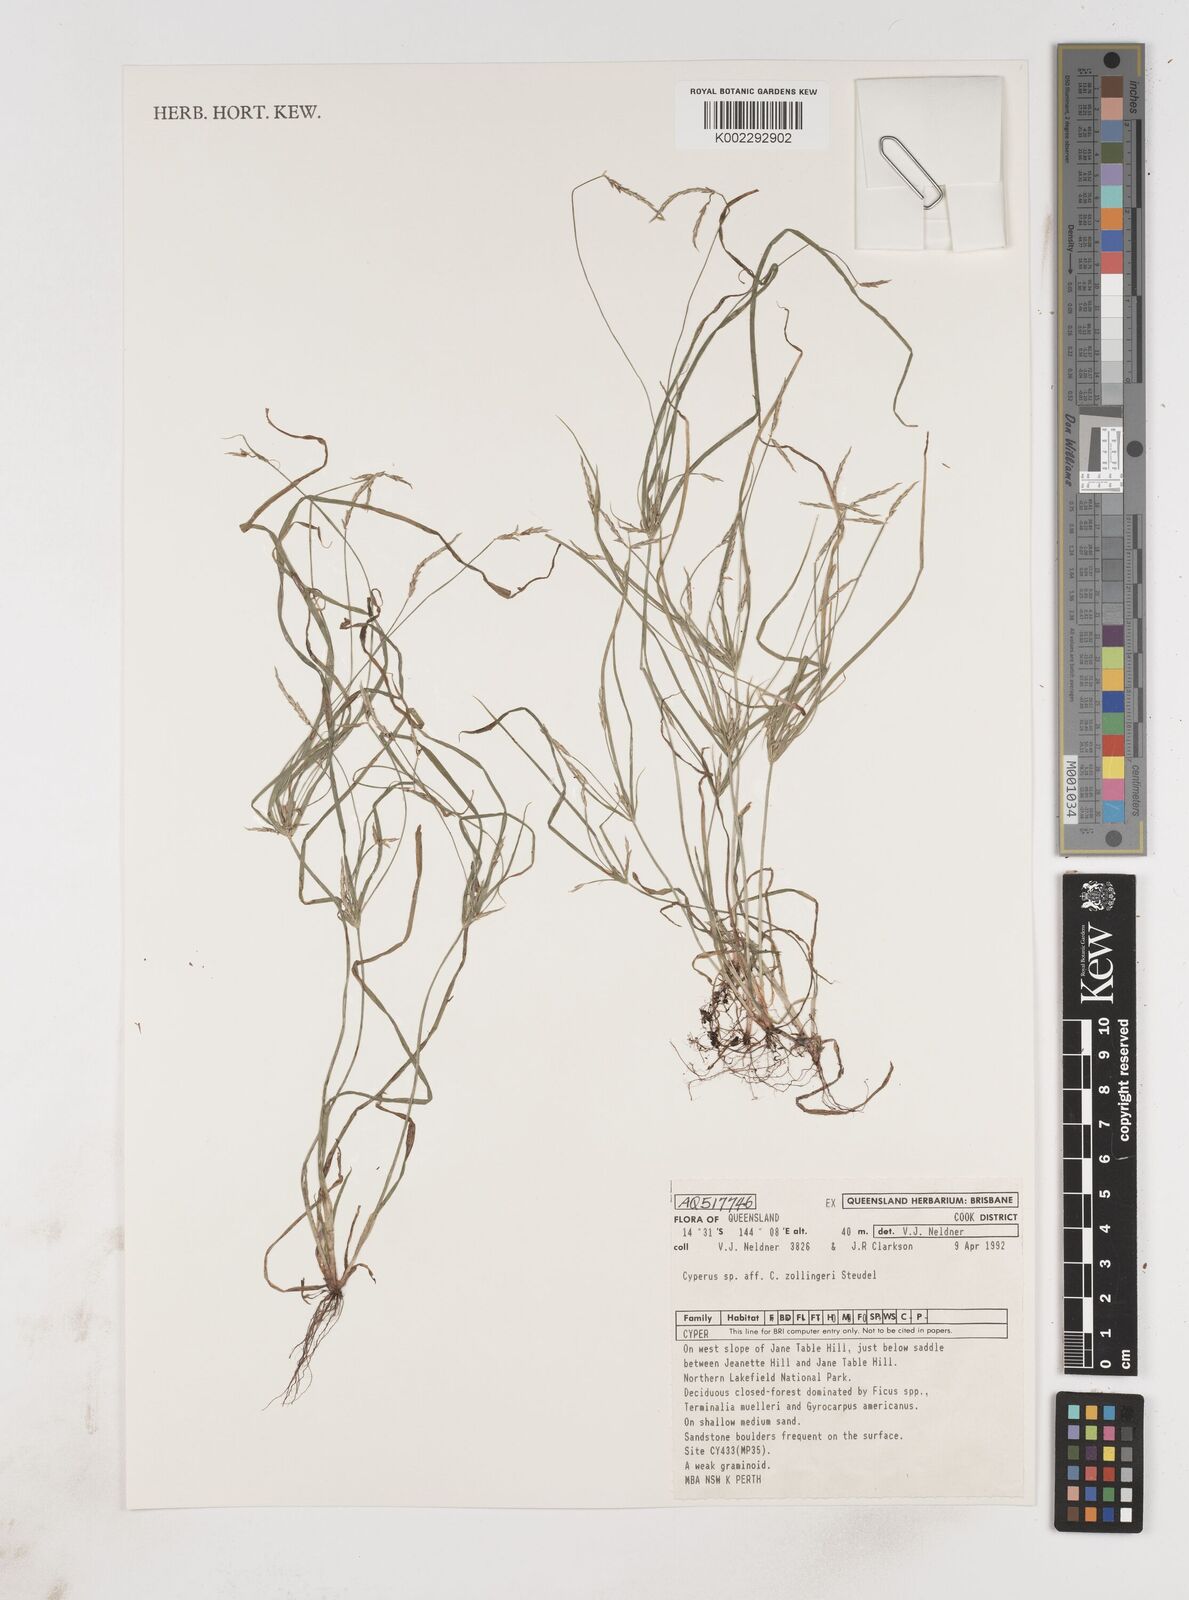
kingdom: Plantae
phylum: Tracheophyta
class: Liliopsida
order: Poales
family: Cyperaceae
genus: Cyperus
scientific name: Cyperus zollingeri
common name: Roadside flatsedge
